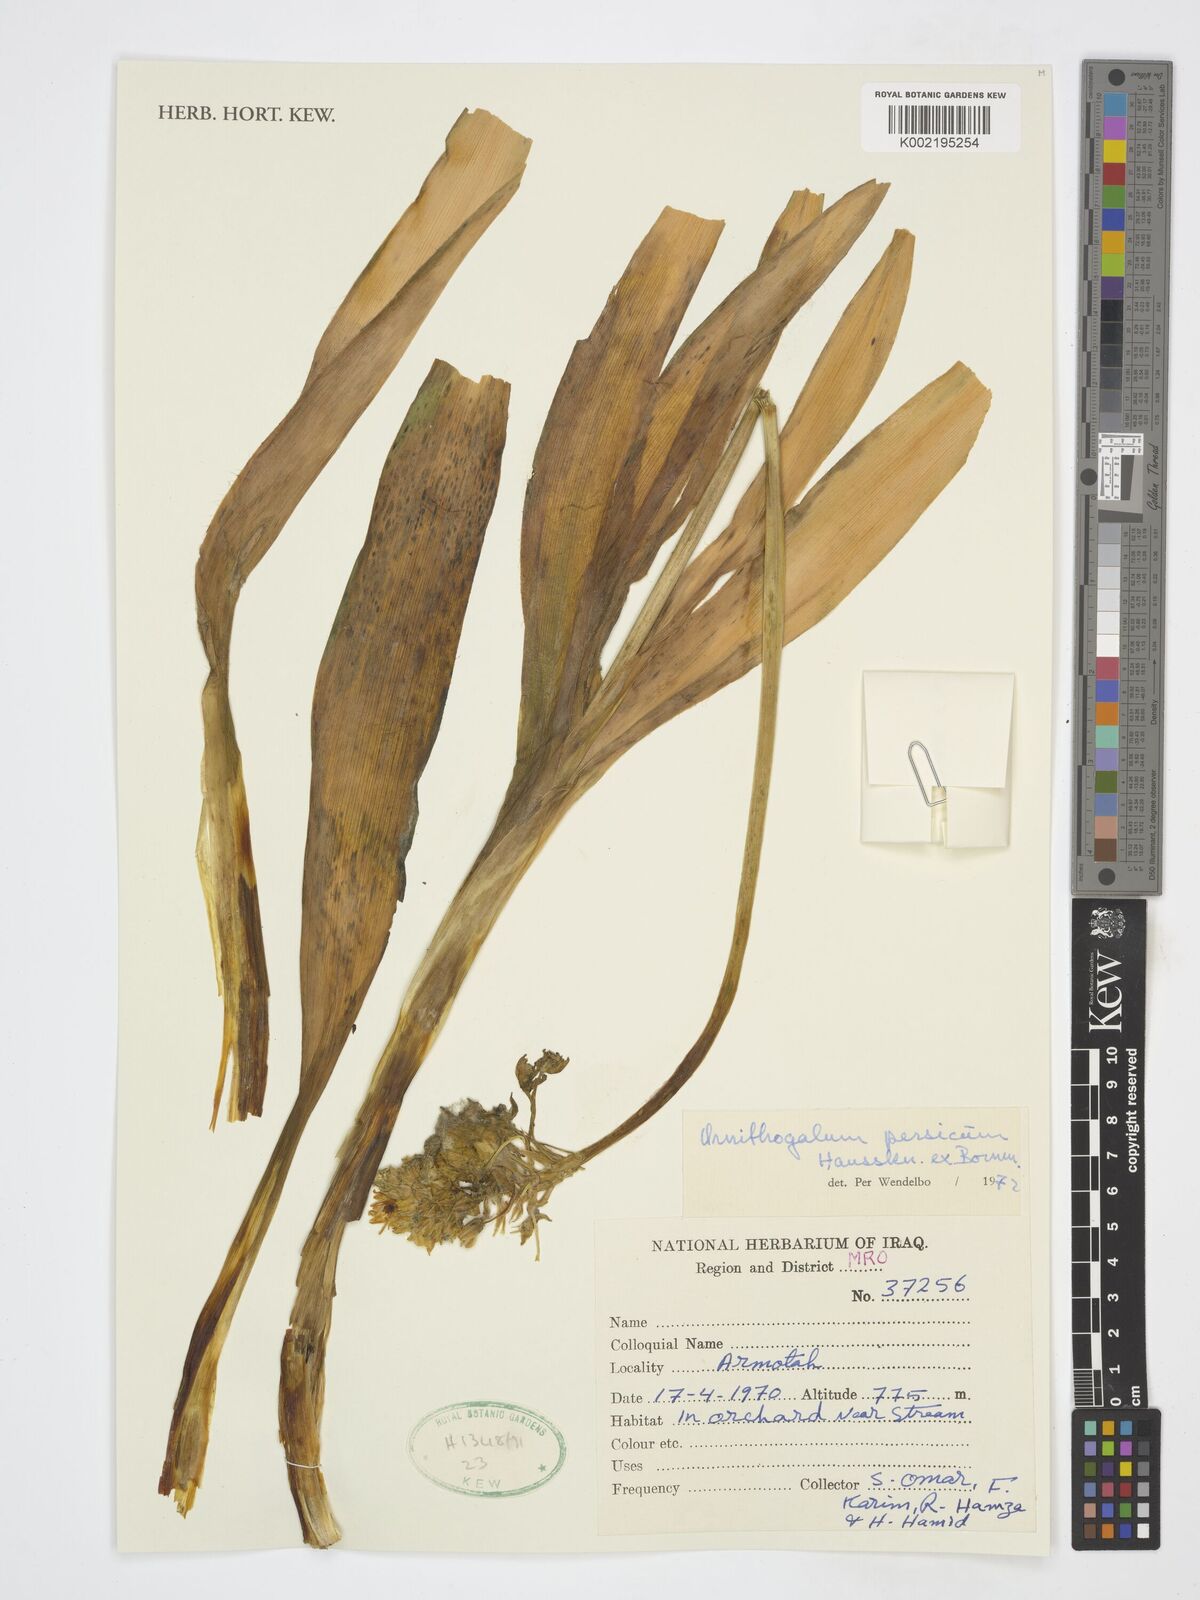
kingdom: Plantae
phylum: Tracheophyta
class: Liliopsida
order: Asparagales
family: Asparagaceae
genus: Ornithogalum
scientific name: Ornithogalum persicum
